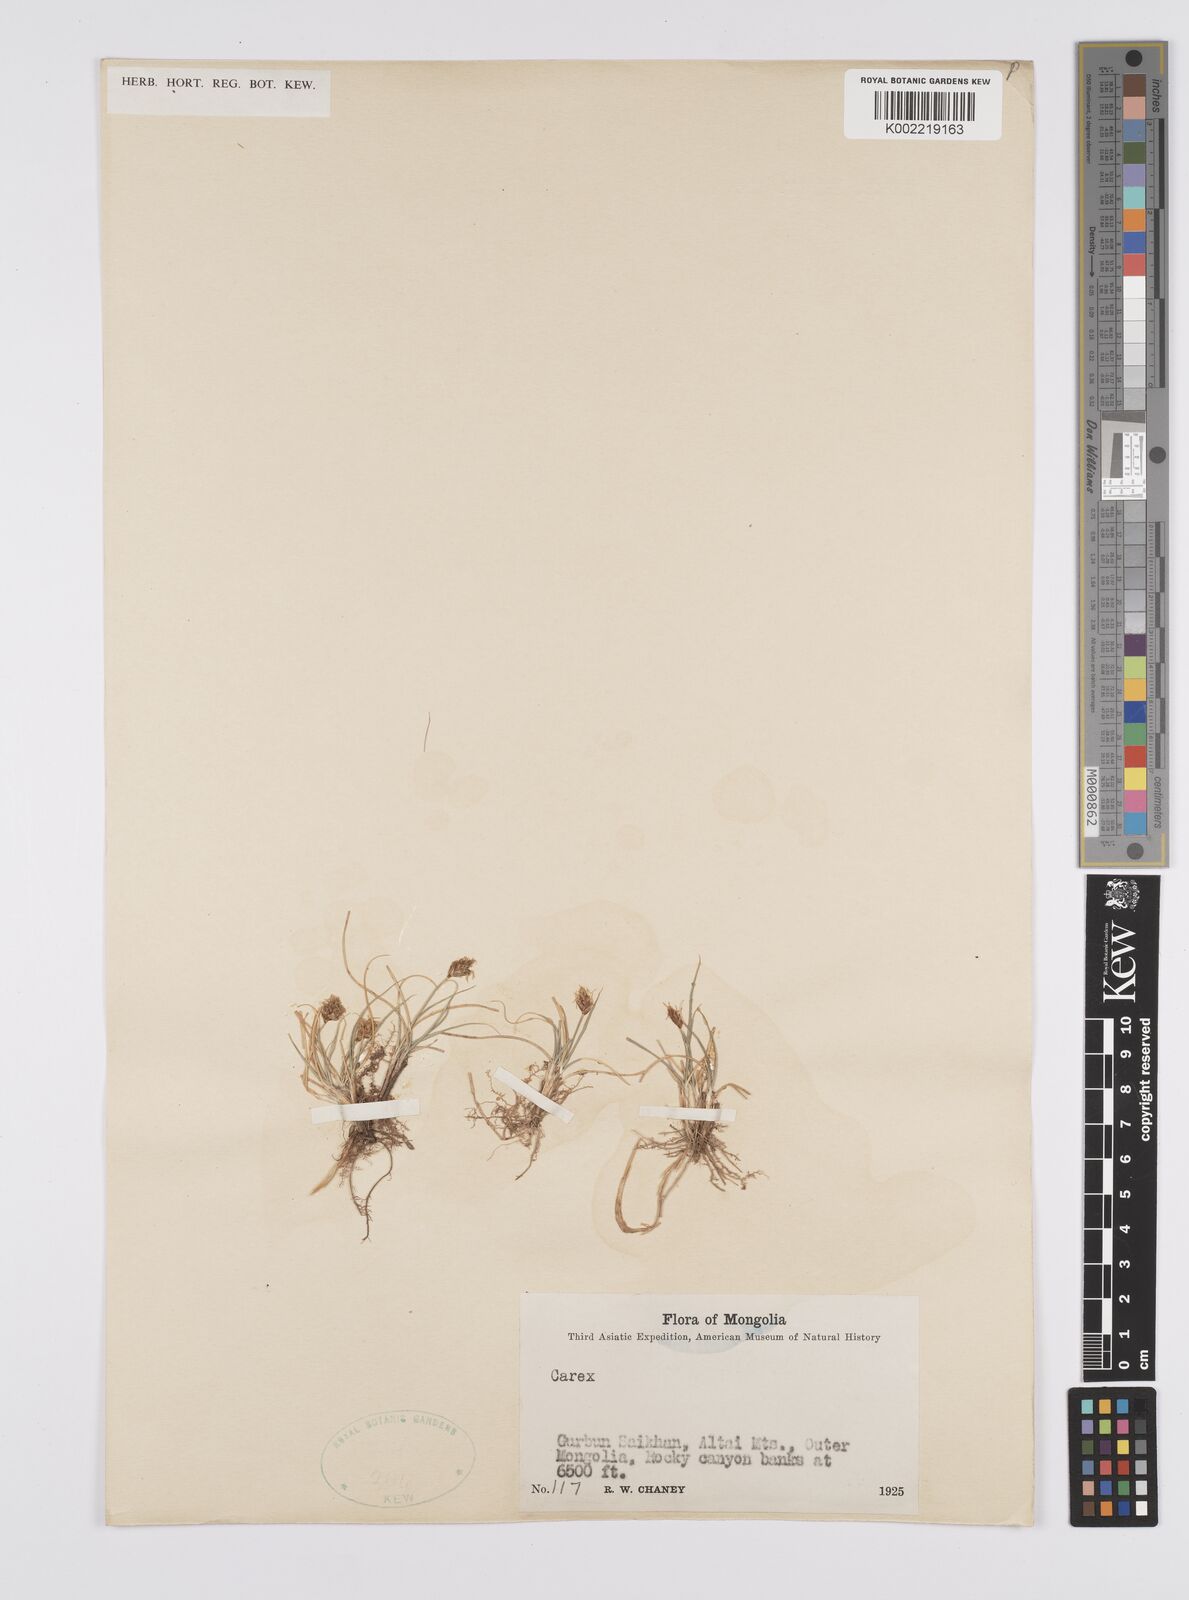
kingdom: Plantae
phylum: Tracheophyta
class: Liliopsida
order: Poales
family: Cyperaceae
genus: Carex
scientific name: Carex
